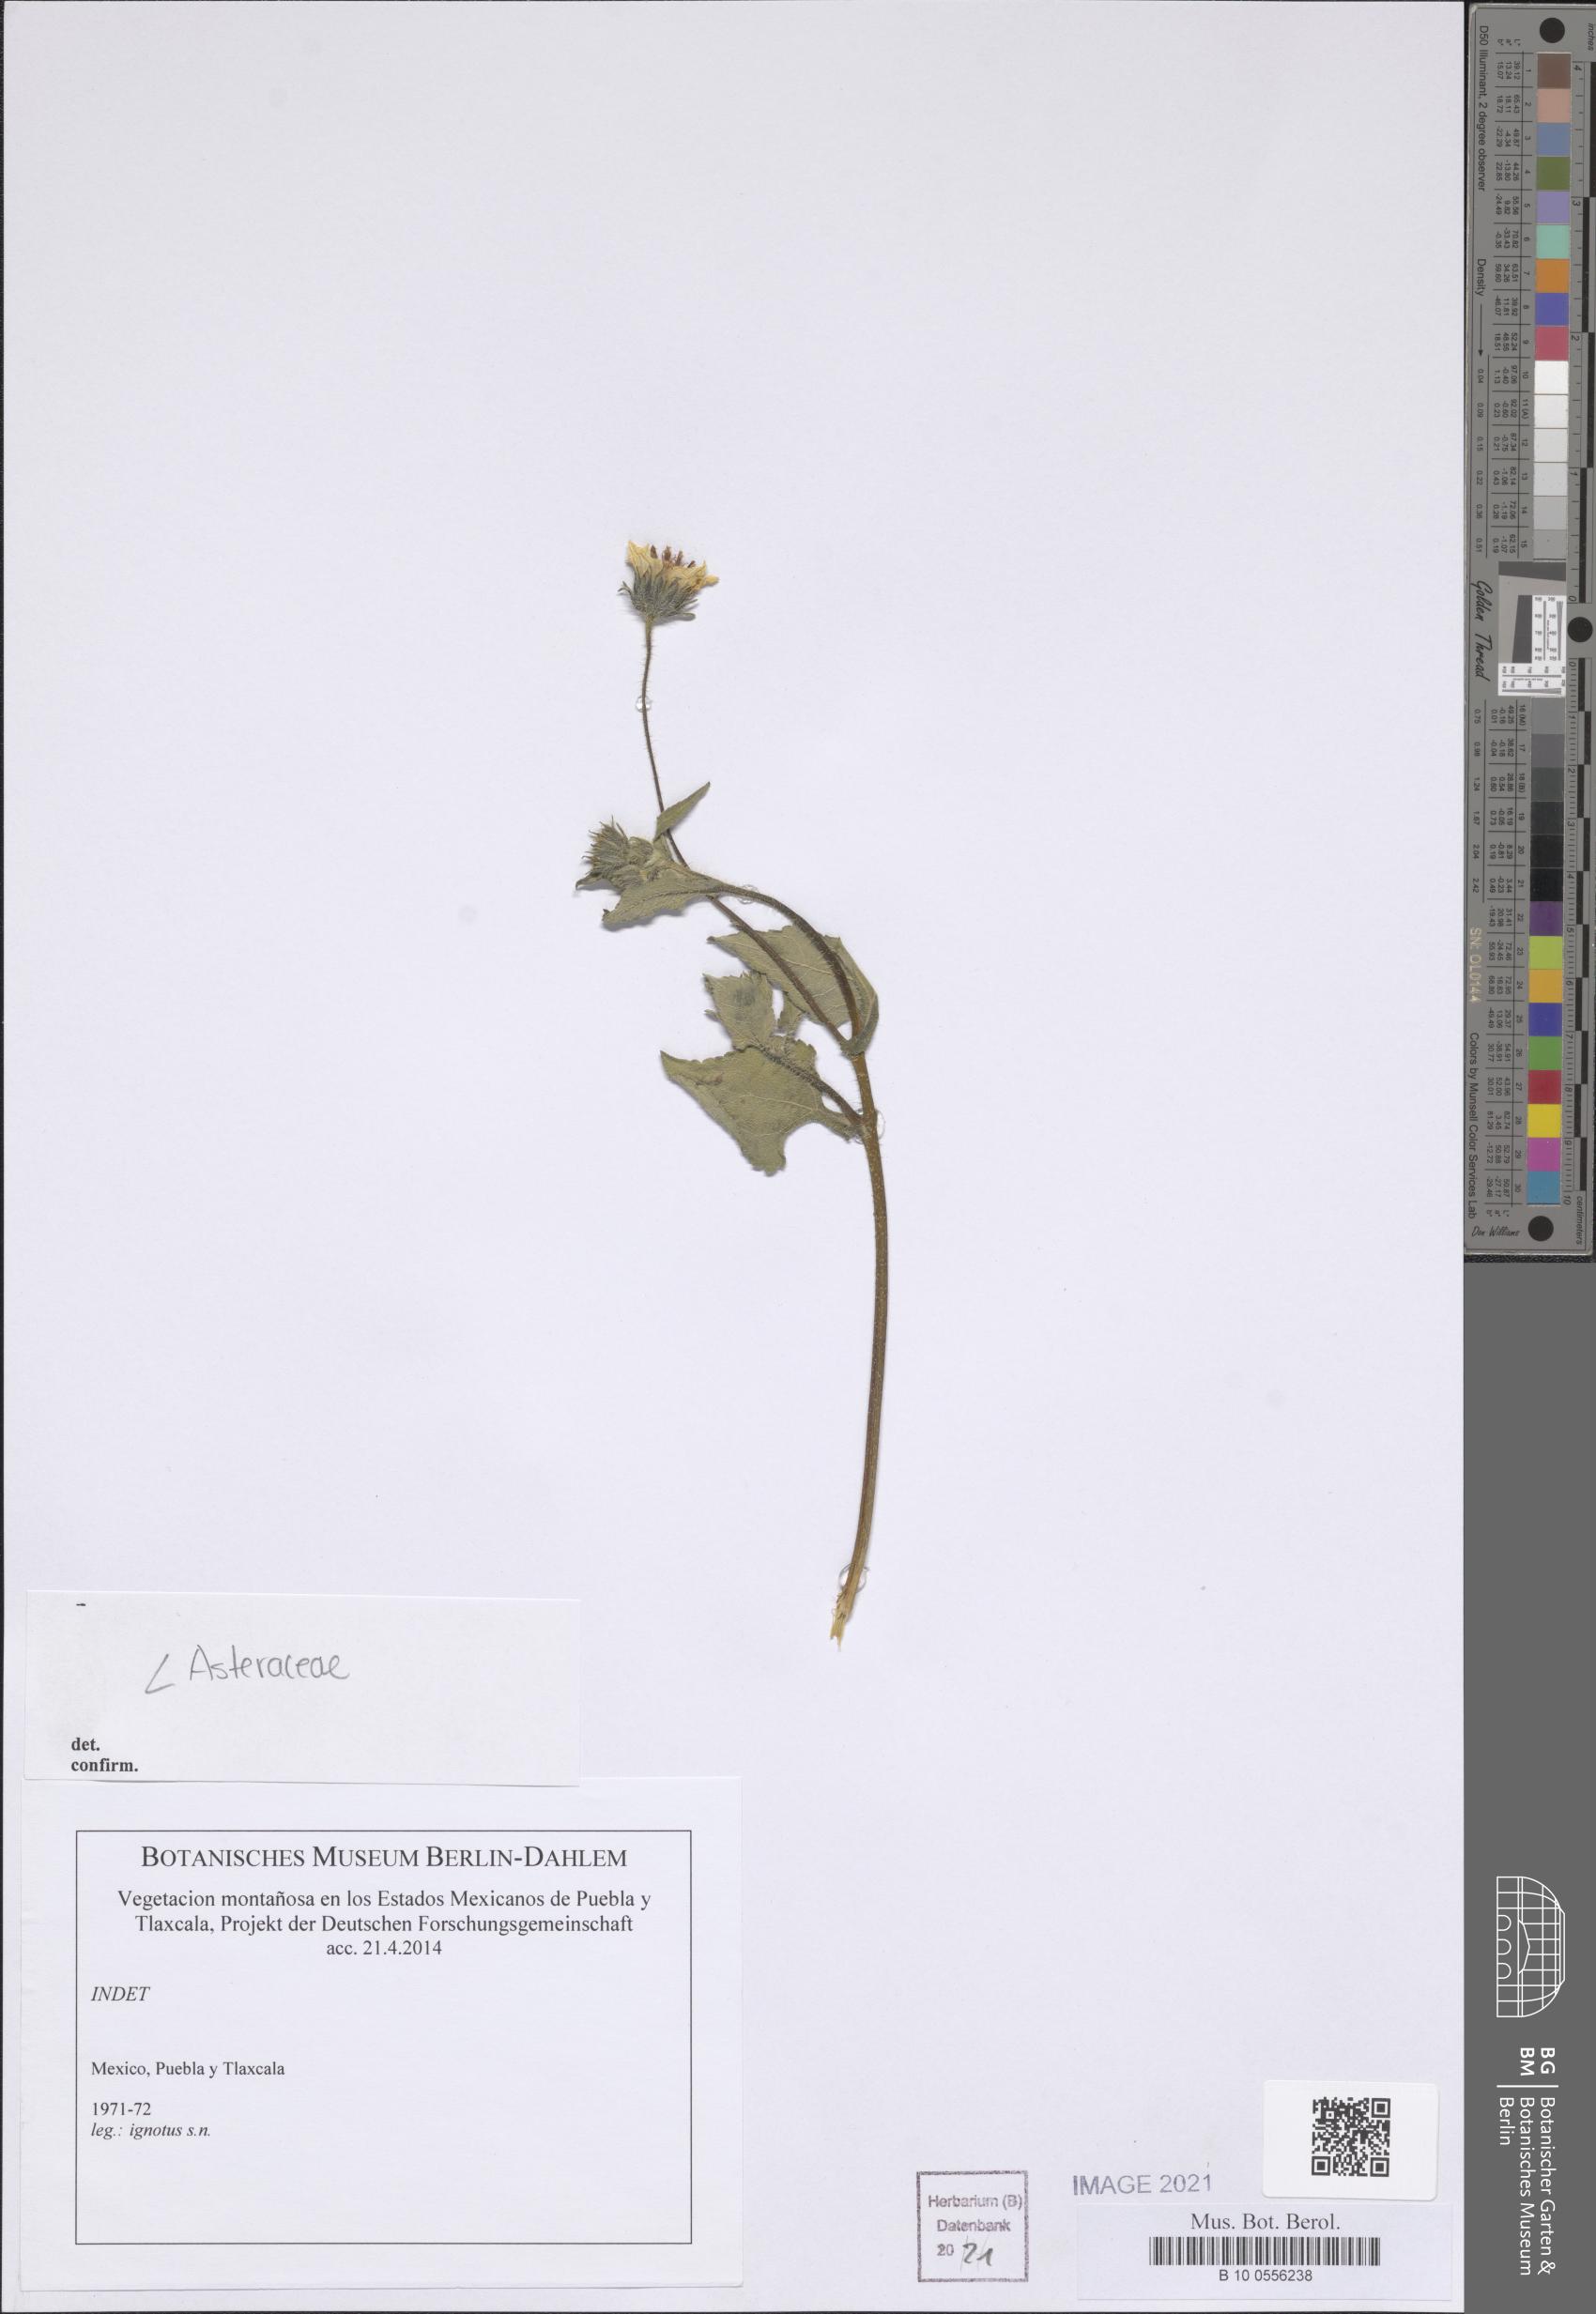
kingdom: Plantae
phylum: Tracheophyta
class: Magnoliopsida
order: Asterales
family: Asteraceae
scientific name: Asteraceae
